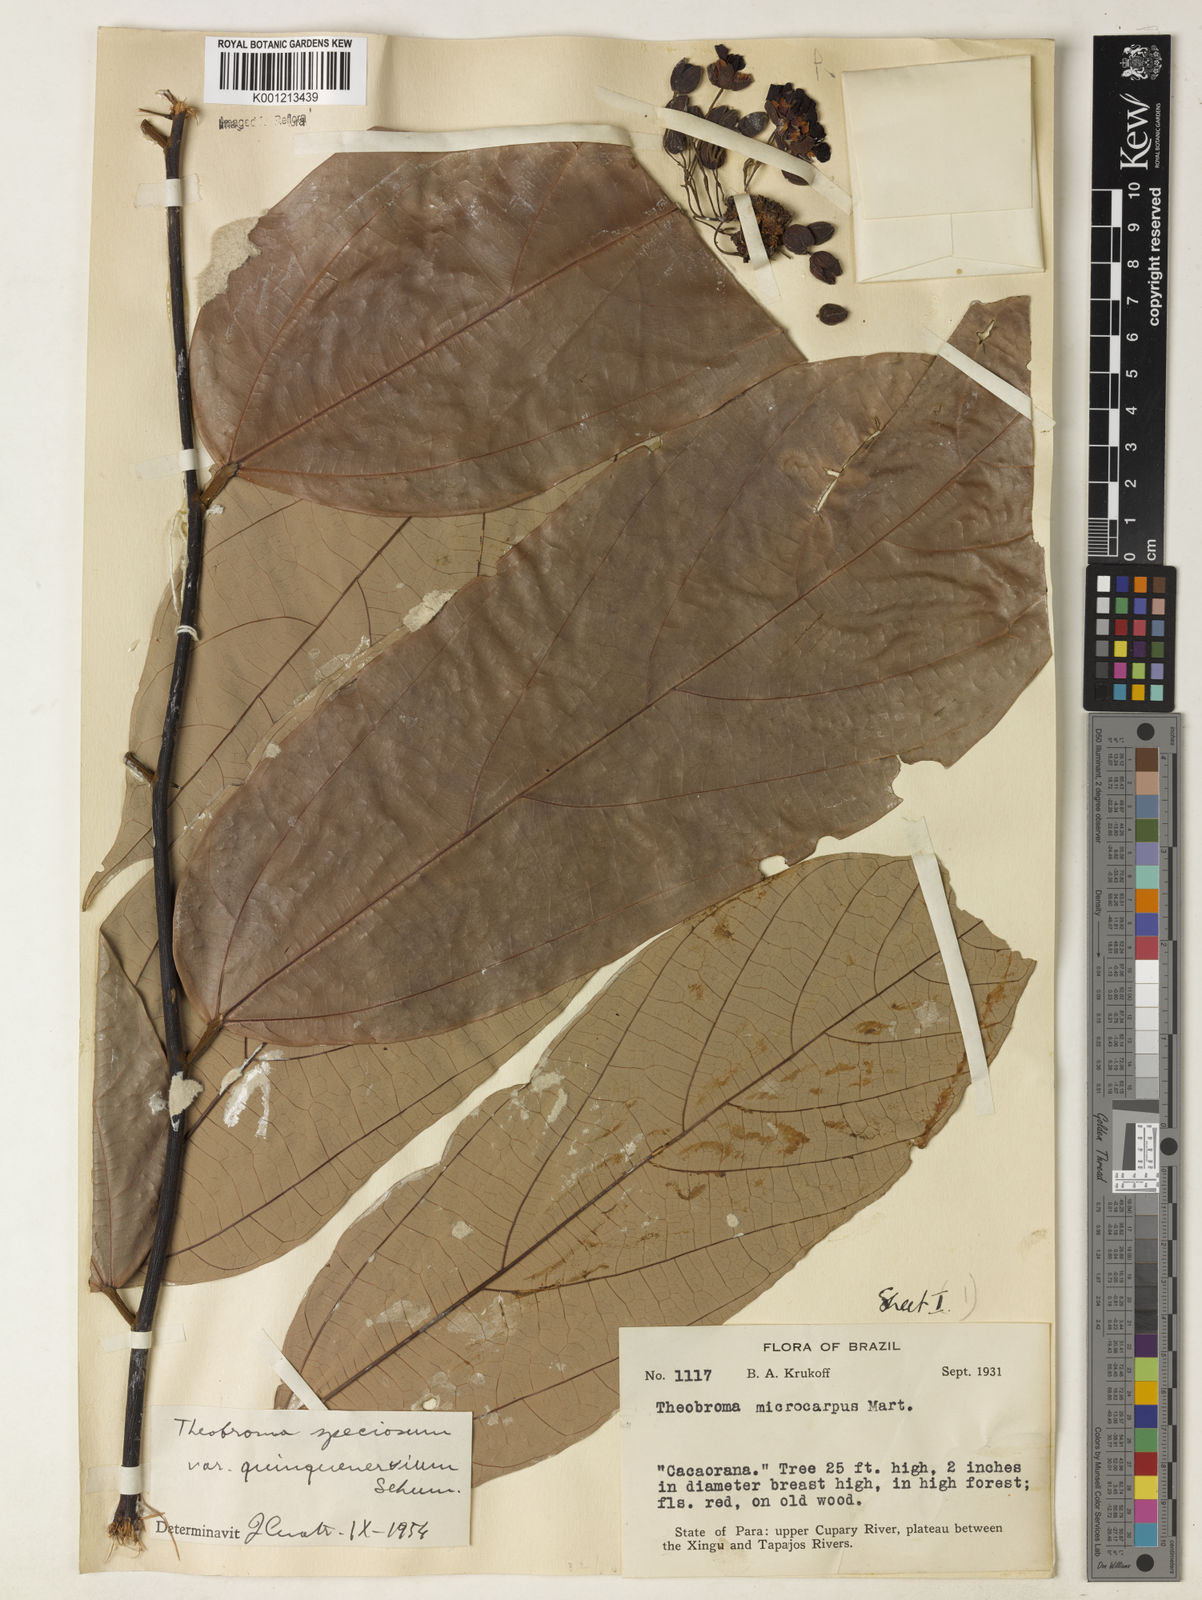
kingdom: Plantae
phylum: Tracheophyta
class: Magnoliopsida
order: Malvales
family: Malvaceae
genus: Theobroma
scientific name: Theobroma speciosum
